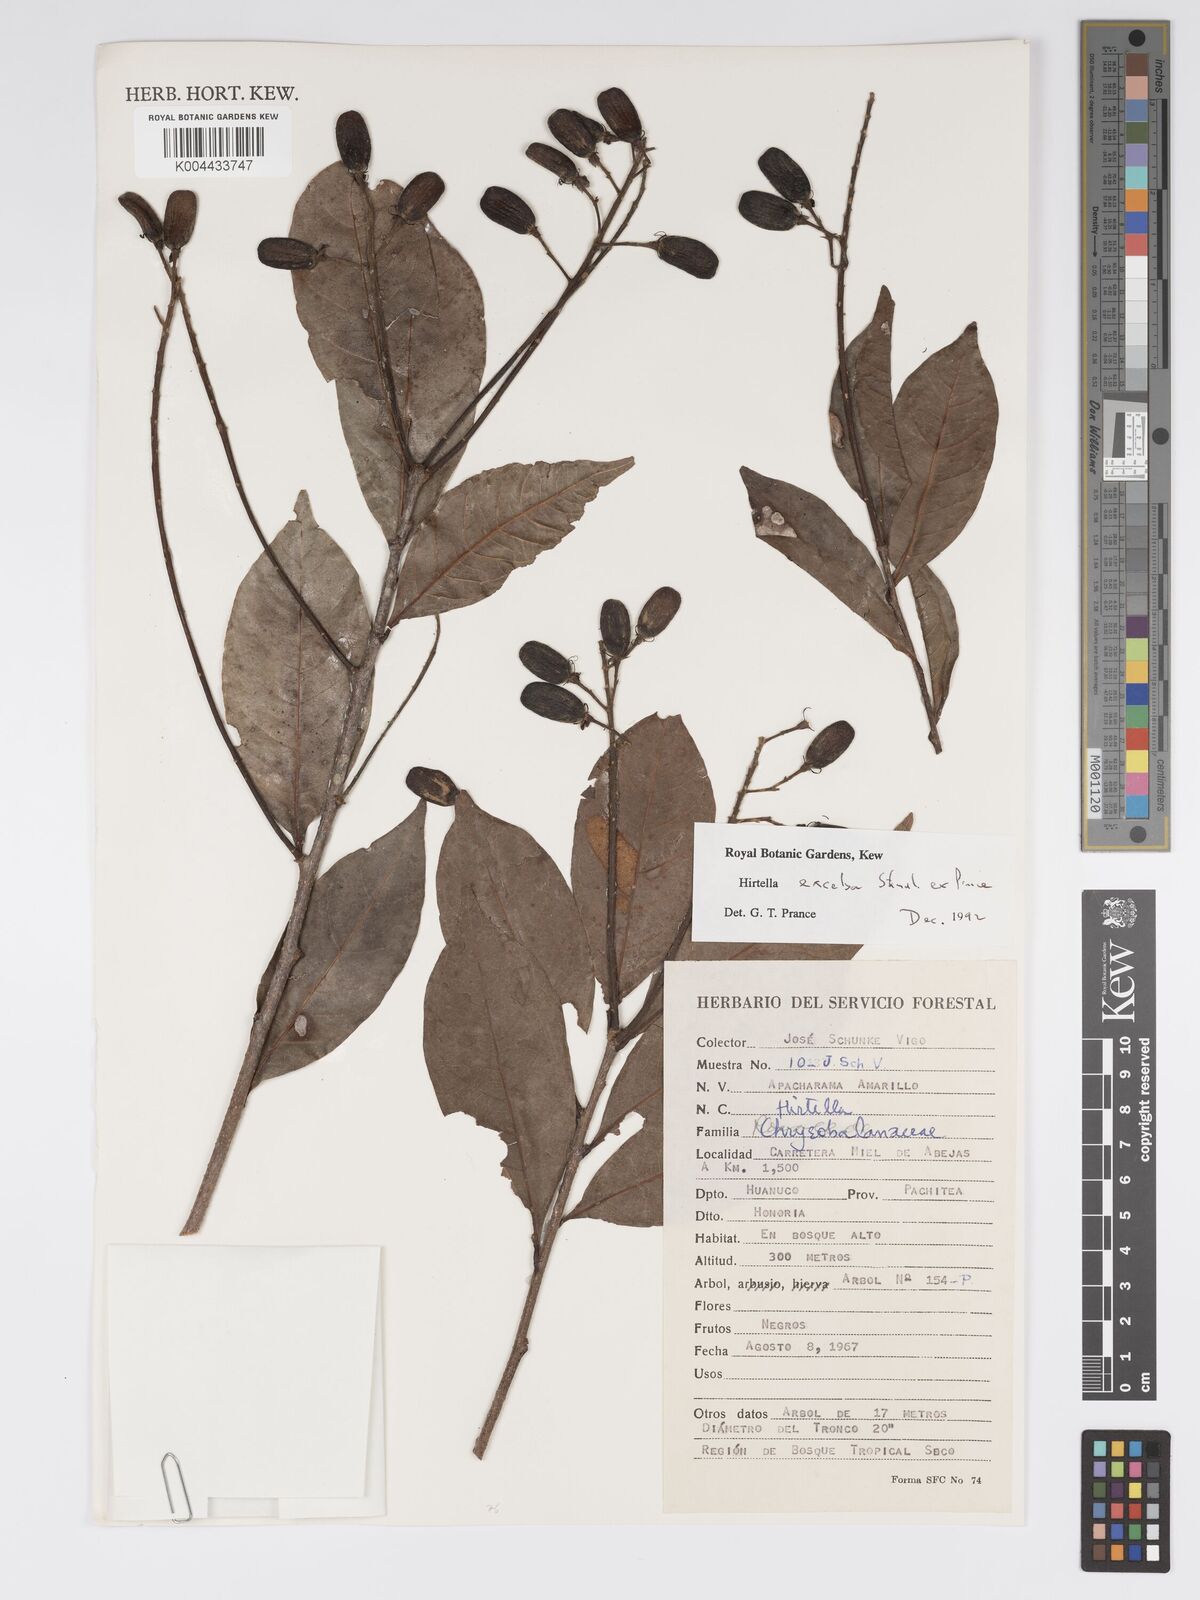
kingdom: Plantae
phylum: Tracheophyta
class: Magnoliopsida
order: Malpighiales
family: Chrysobalanaceae
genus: Hirtella
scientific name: Hirtella excelsa
